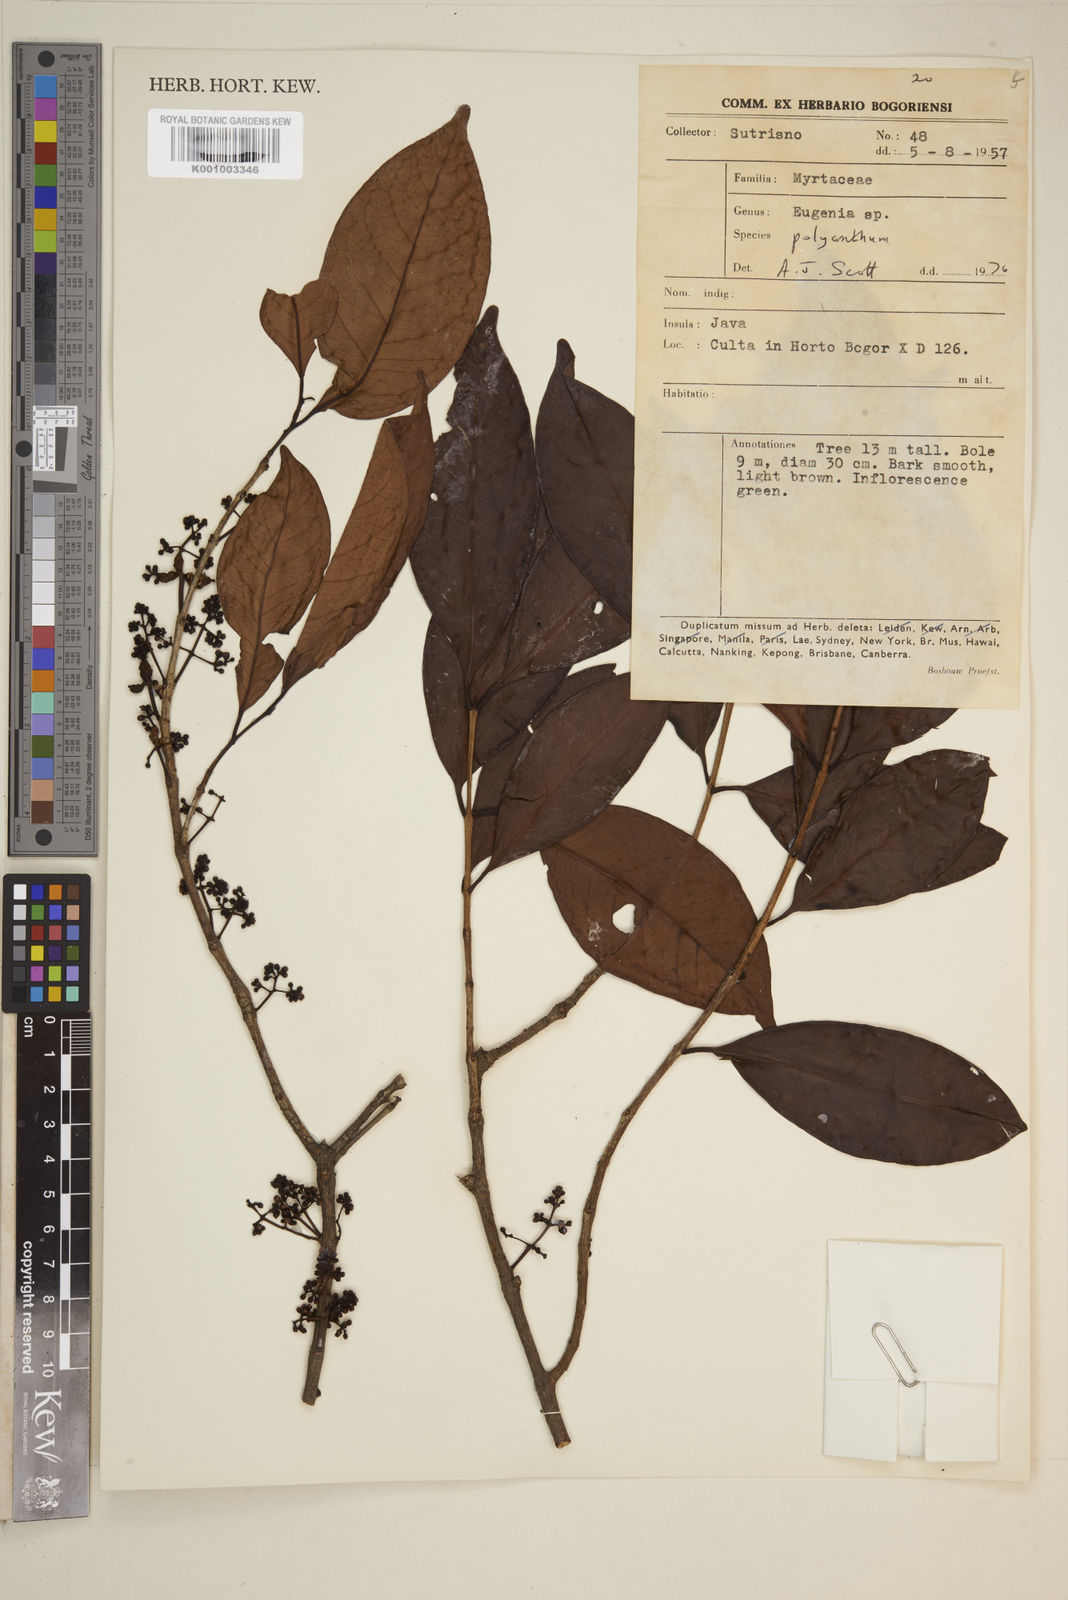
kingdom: Plantae
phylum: Tracheophyta
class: Magnoliopsida
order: Myrtales
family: Myrtaceae
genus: Eugenia
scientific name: Eugenia
